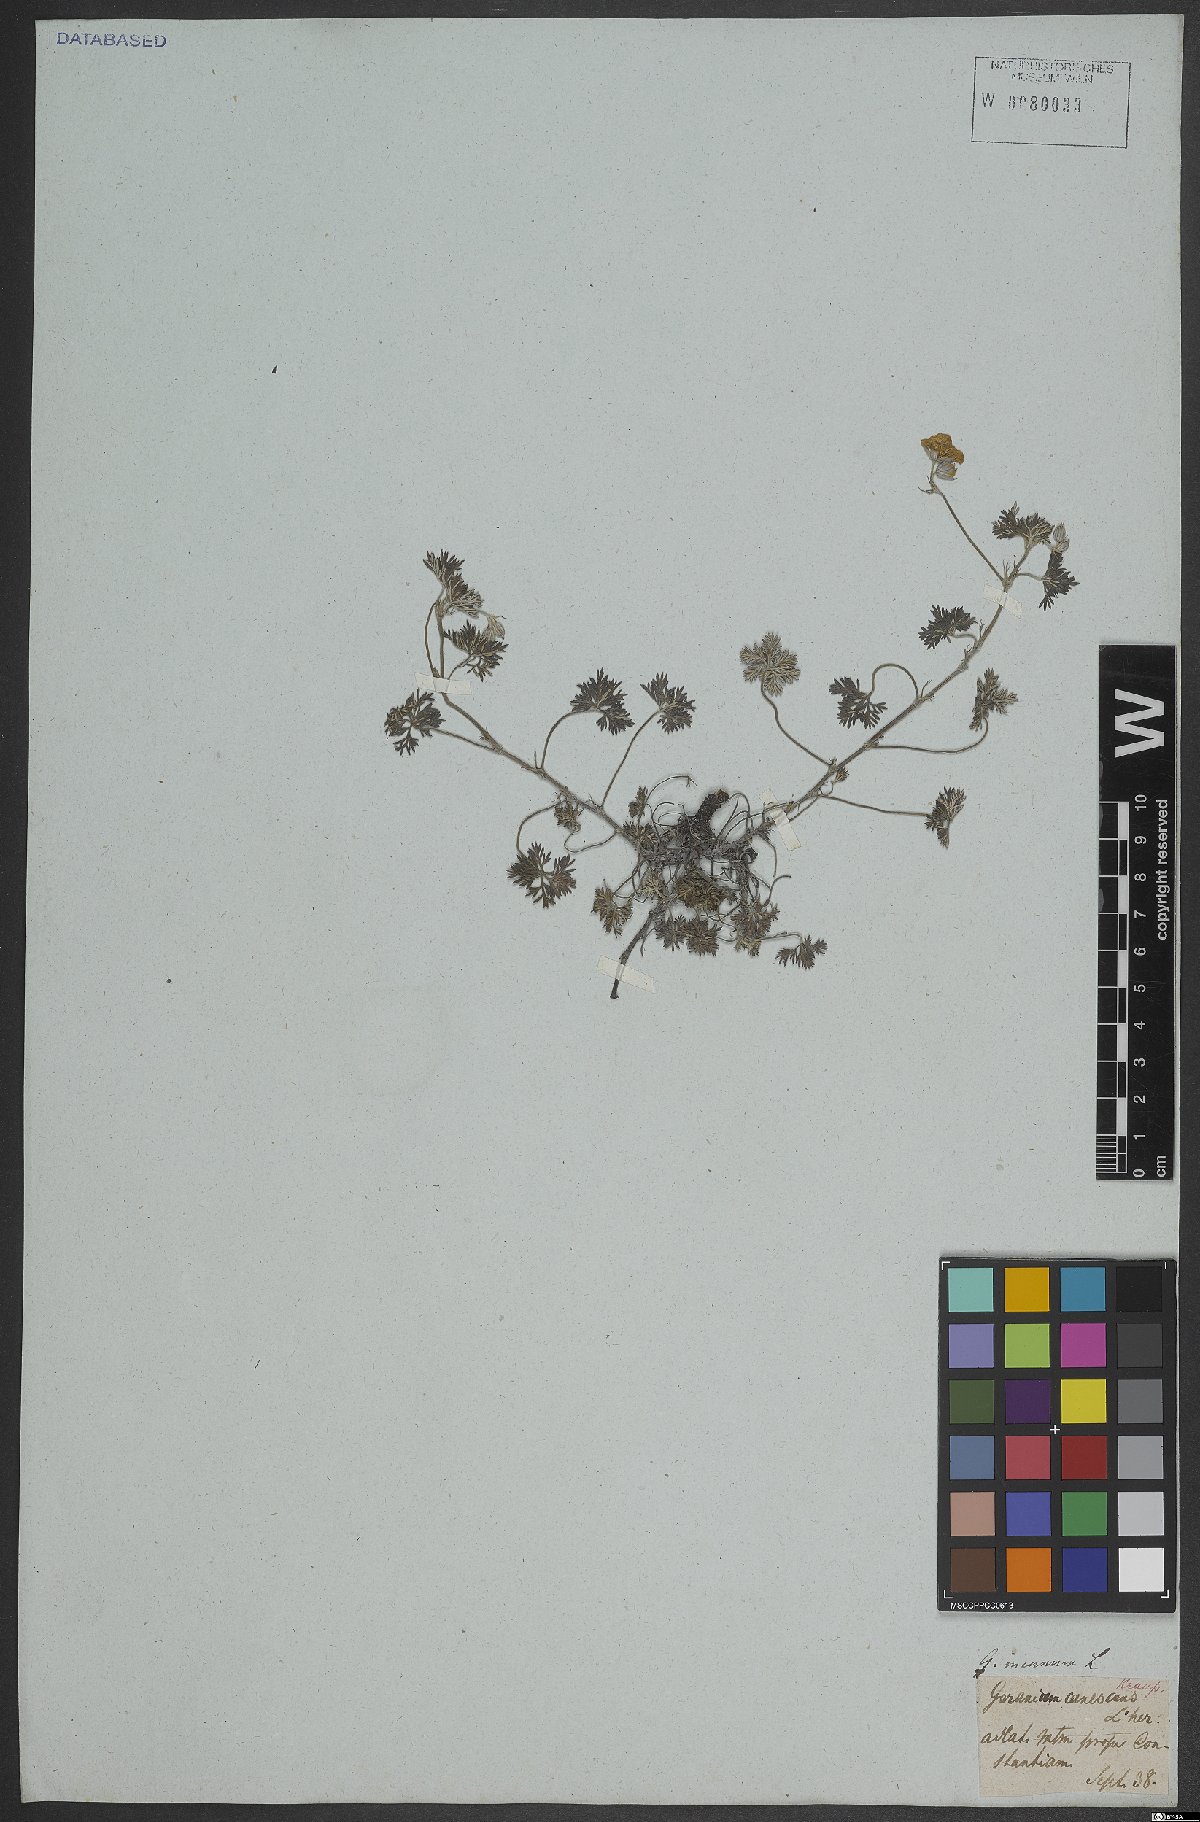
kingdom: Plantae
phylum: Tracheophyta
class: Magnoliopsida
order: Geraniales
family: Geraniaceae
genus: Geranium
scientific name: Geranium incanum
